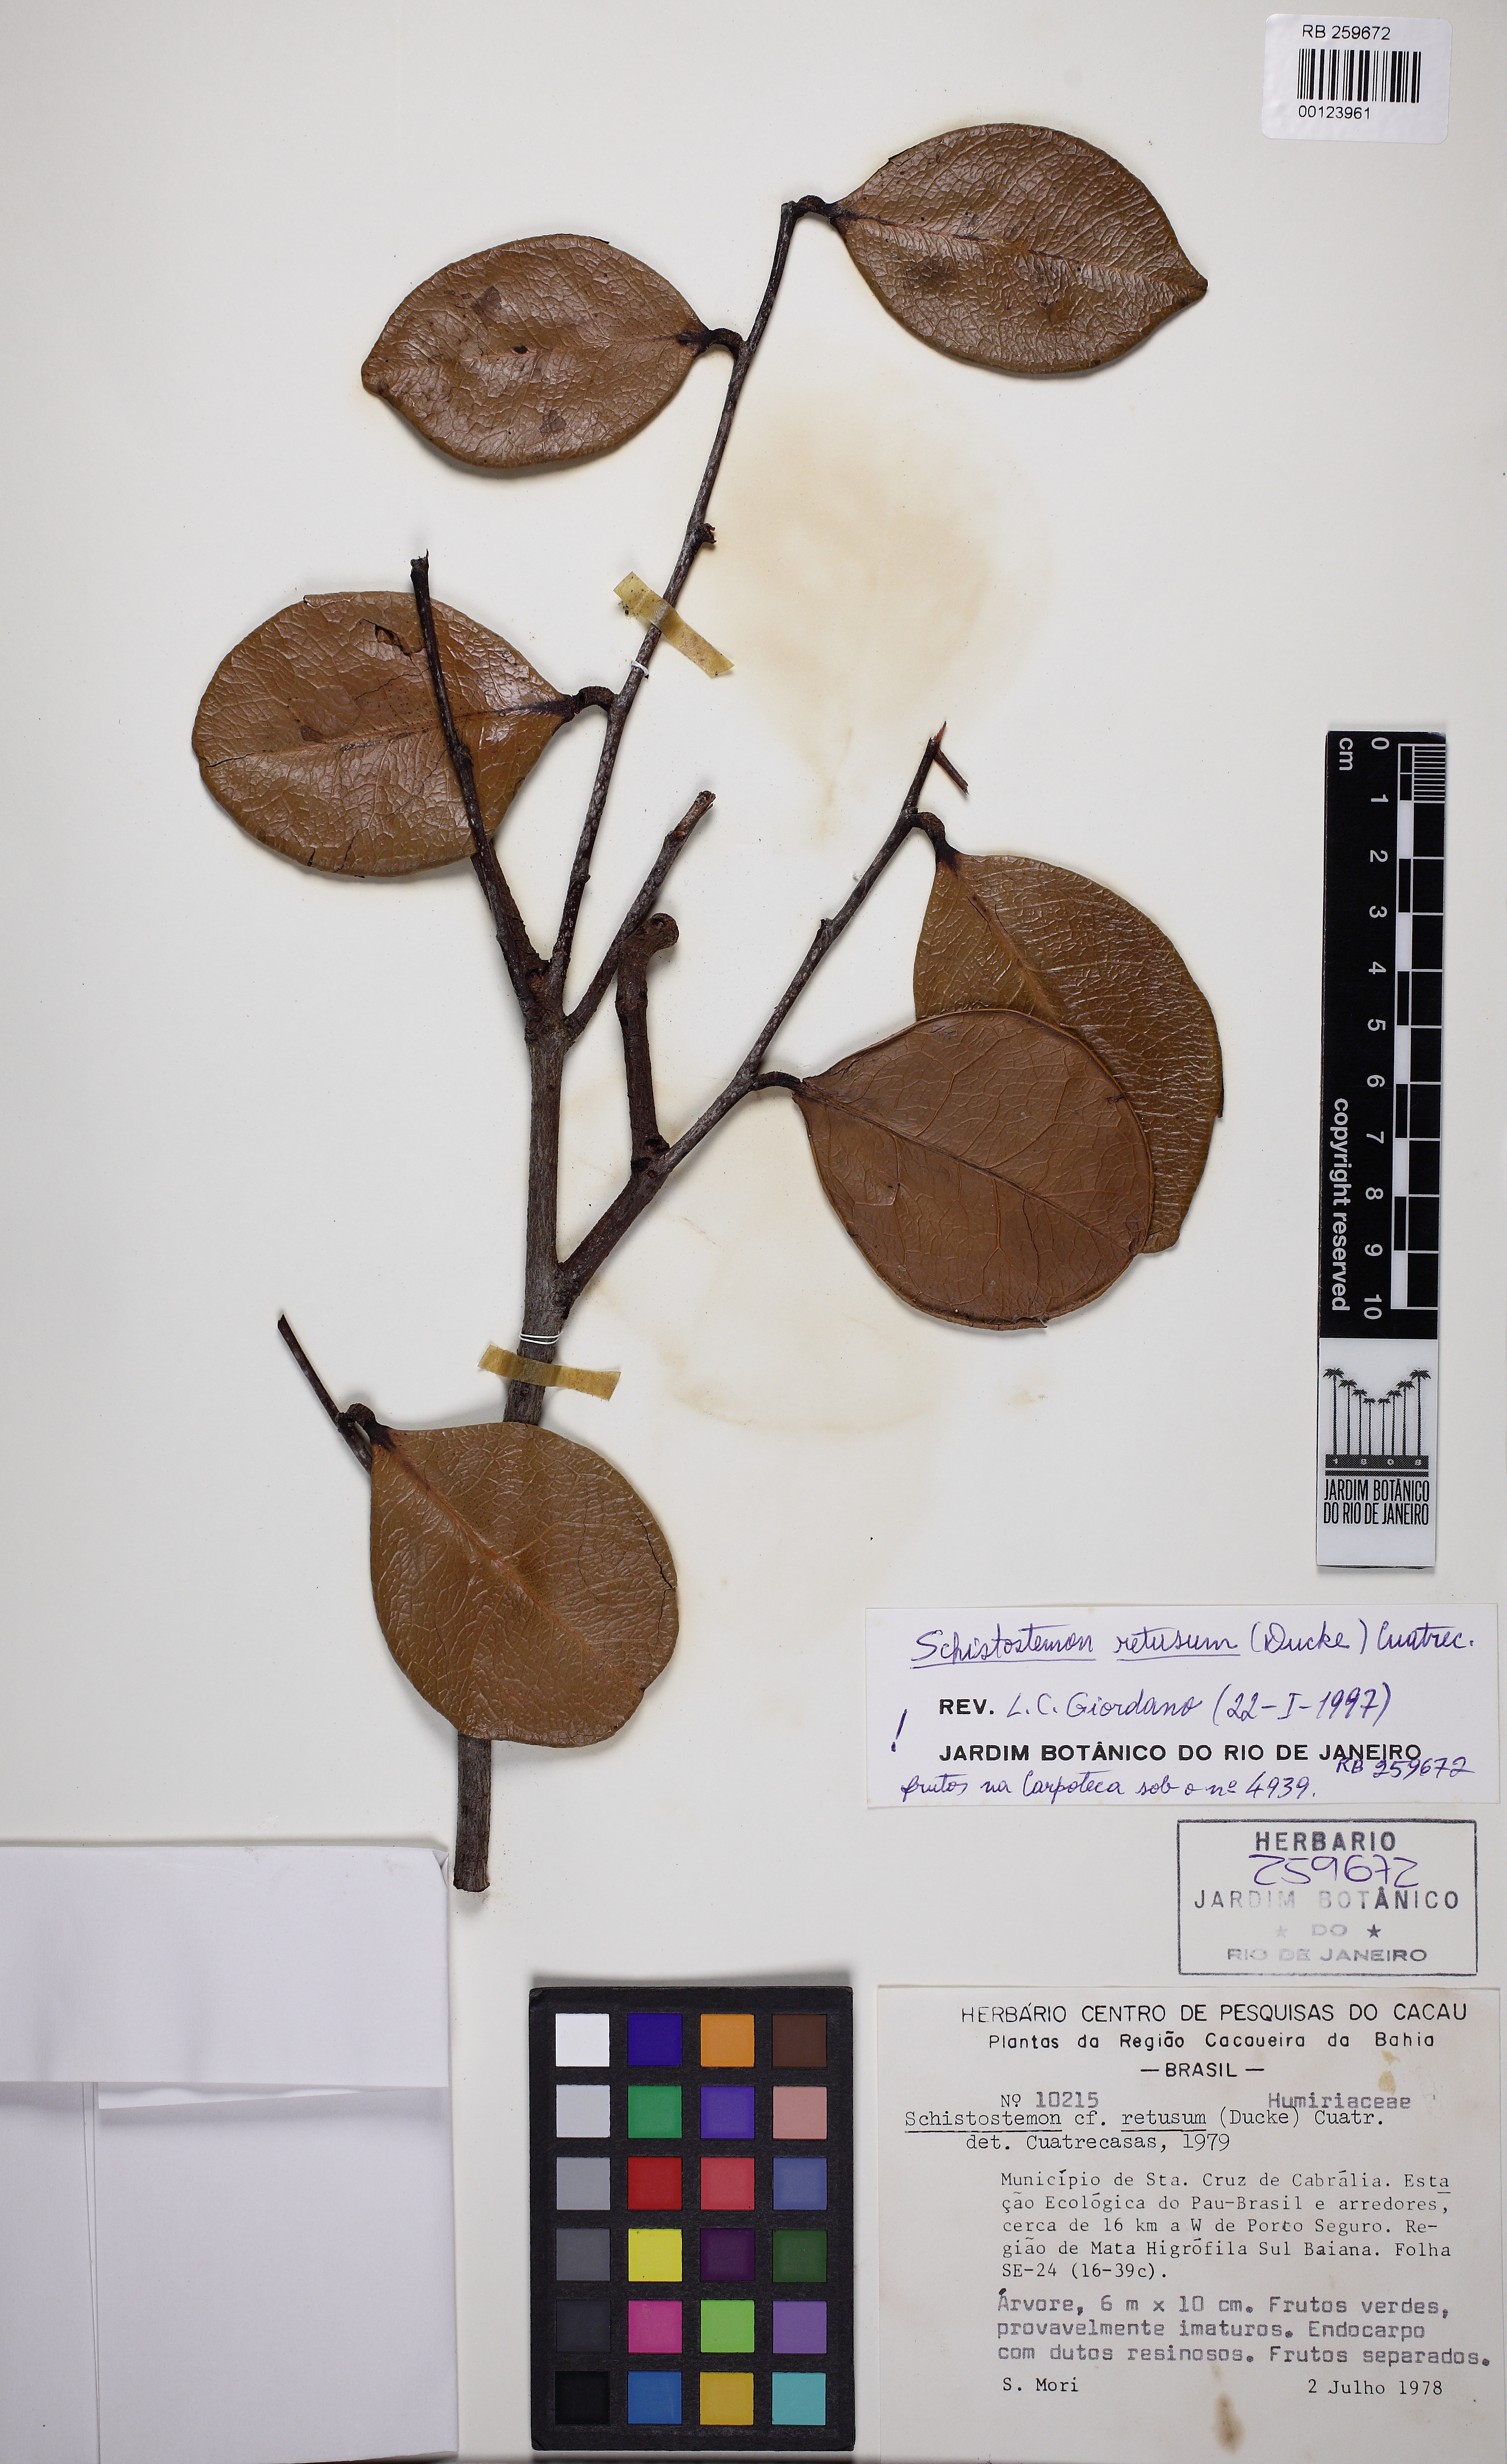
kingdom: Plantae
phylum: Tracheophyta
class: Magnoliopsida
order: Malpighiales
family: Humiriaceae
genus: Schistostemon
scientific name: Schistostemon retusum
